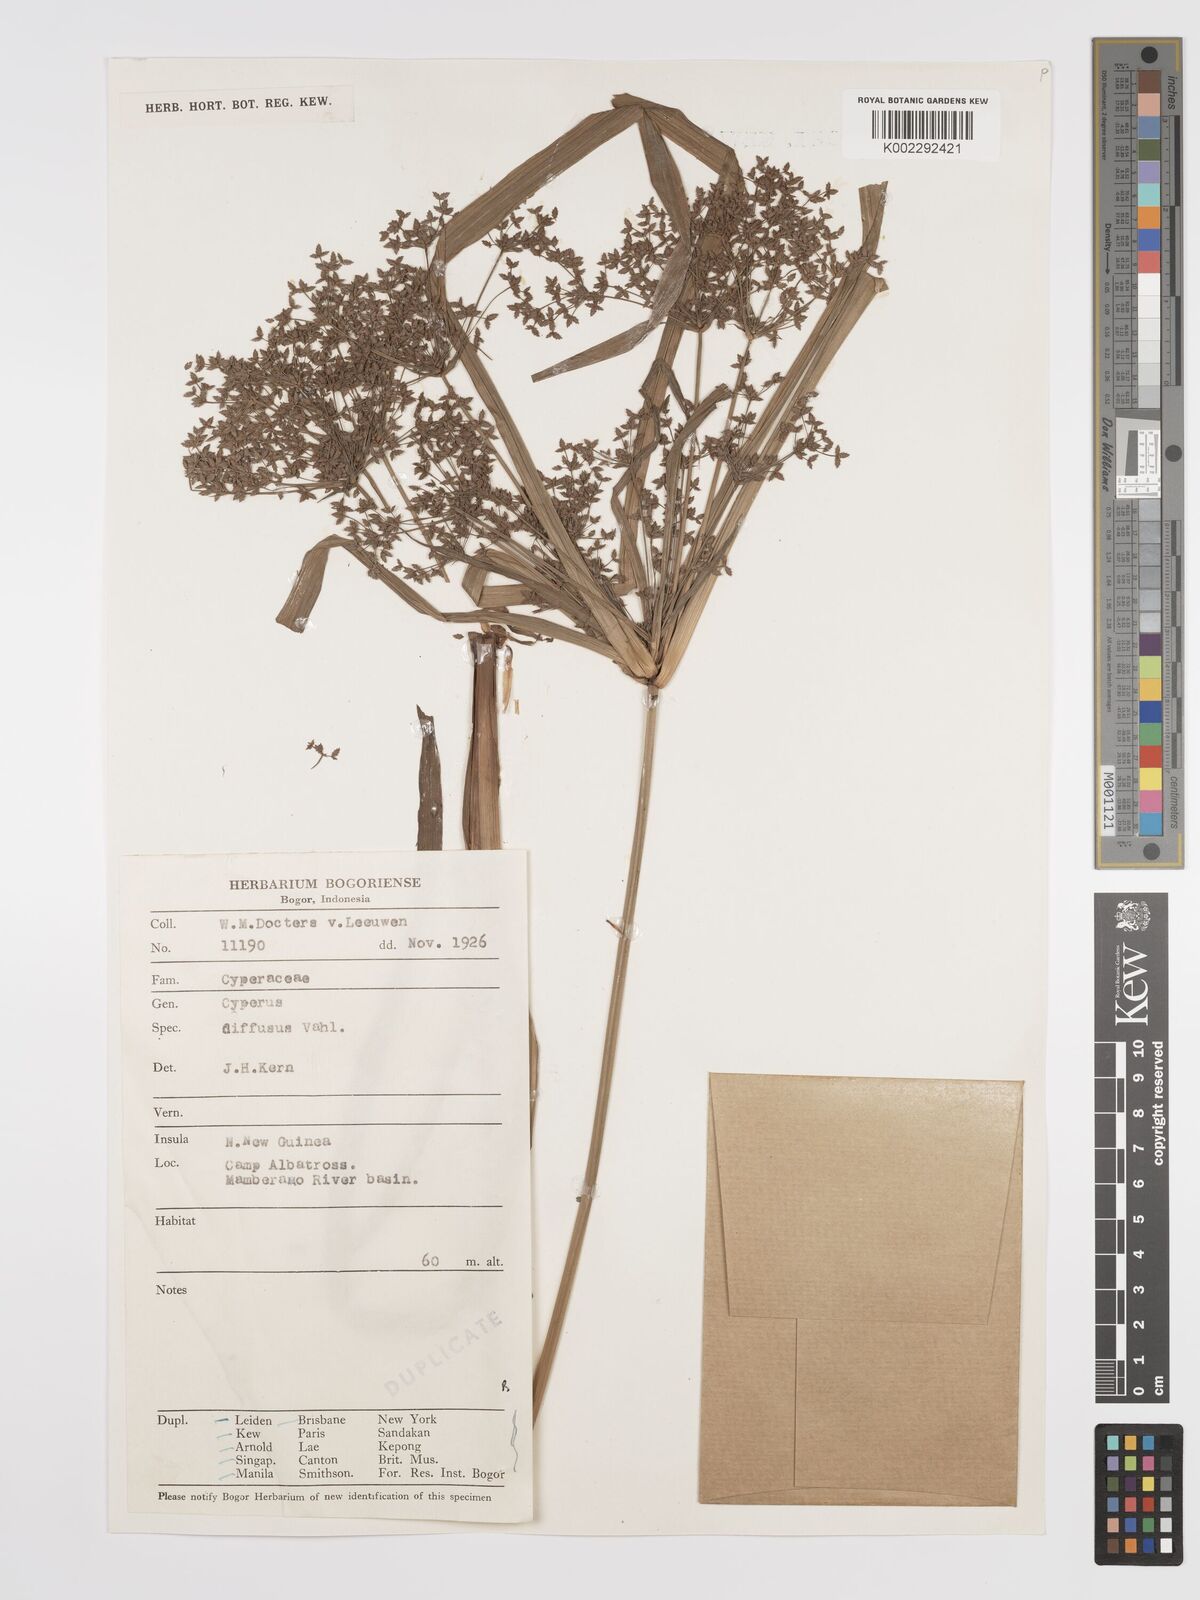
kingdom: Plantae
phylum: Tracheophyta
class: Liliopsida
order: Poales
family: Cyperaceae
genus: Cyperus
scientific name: Cyperus diffusus
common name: Dwarf umbrella grass
